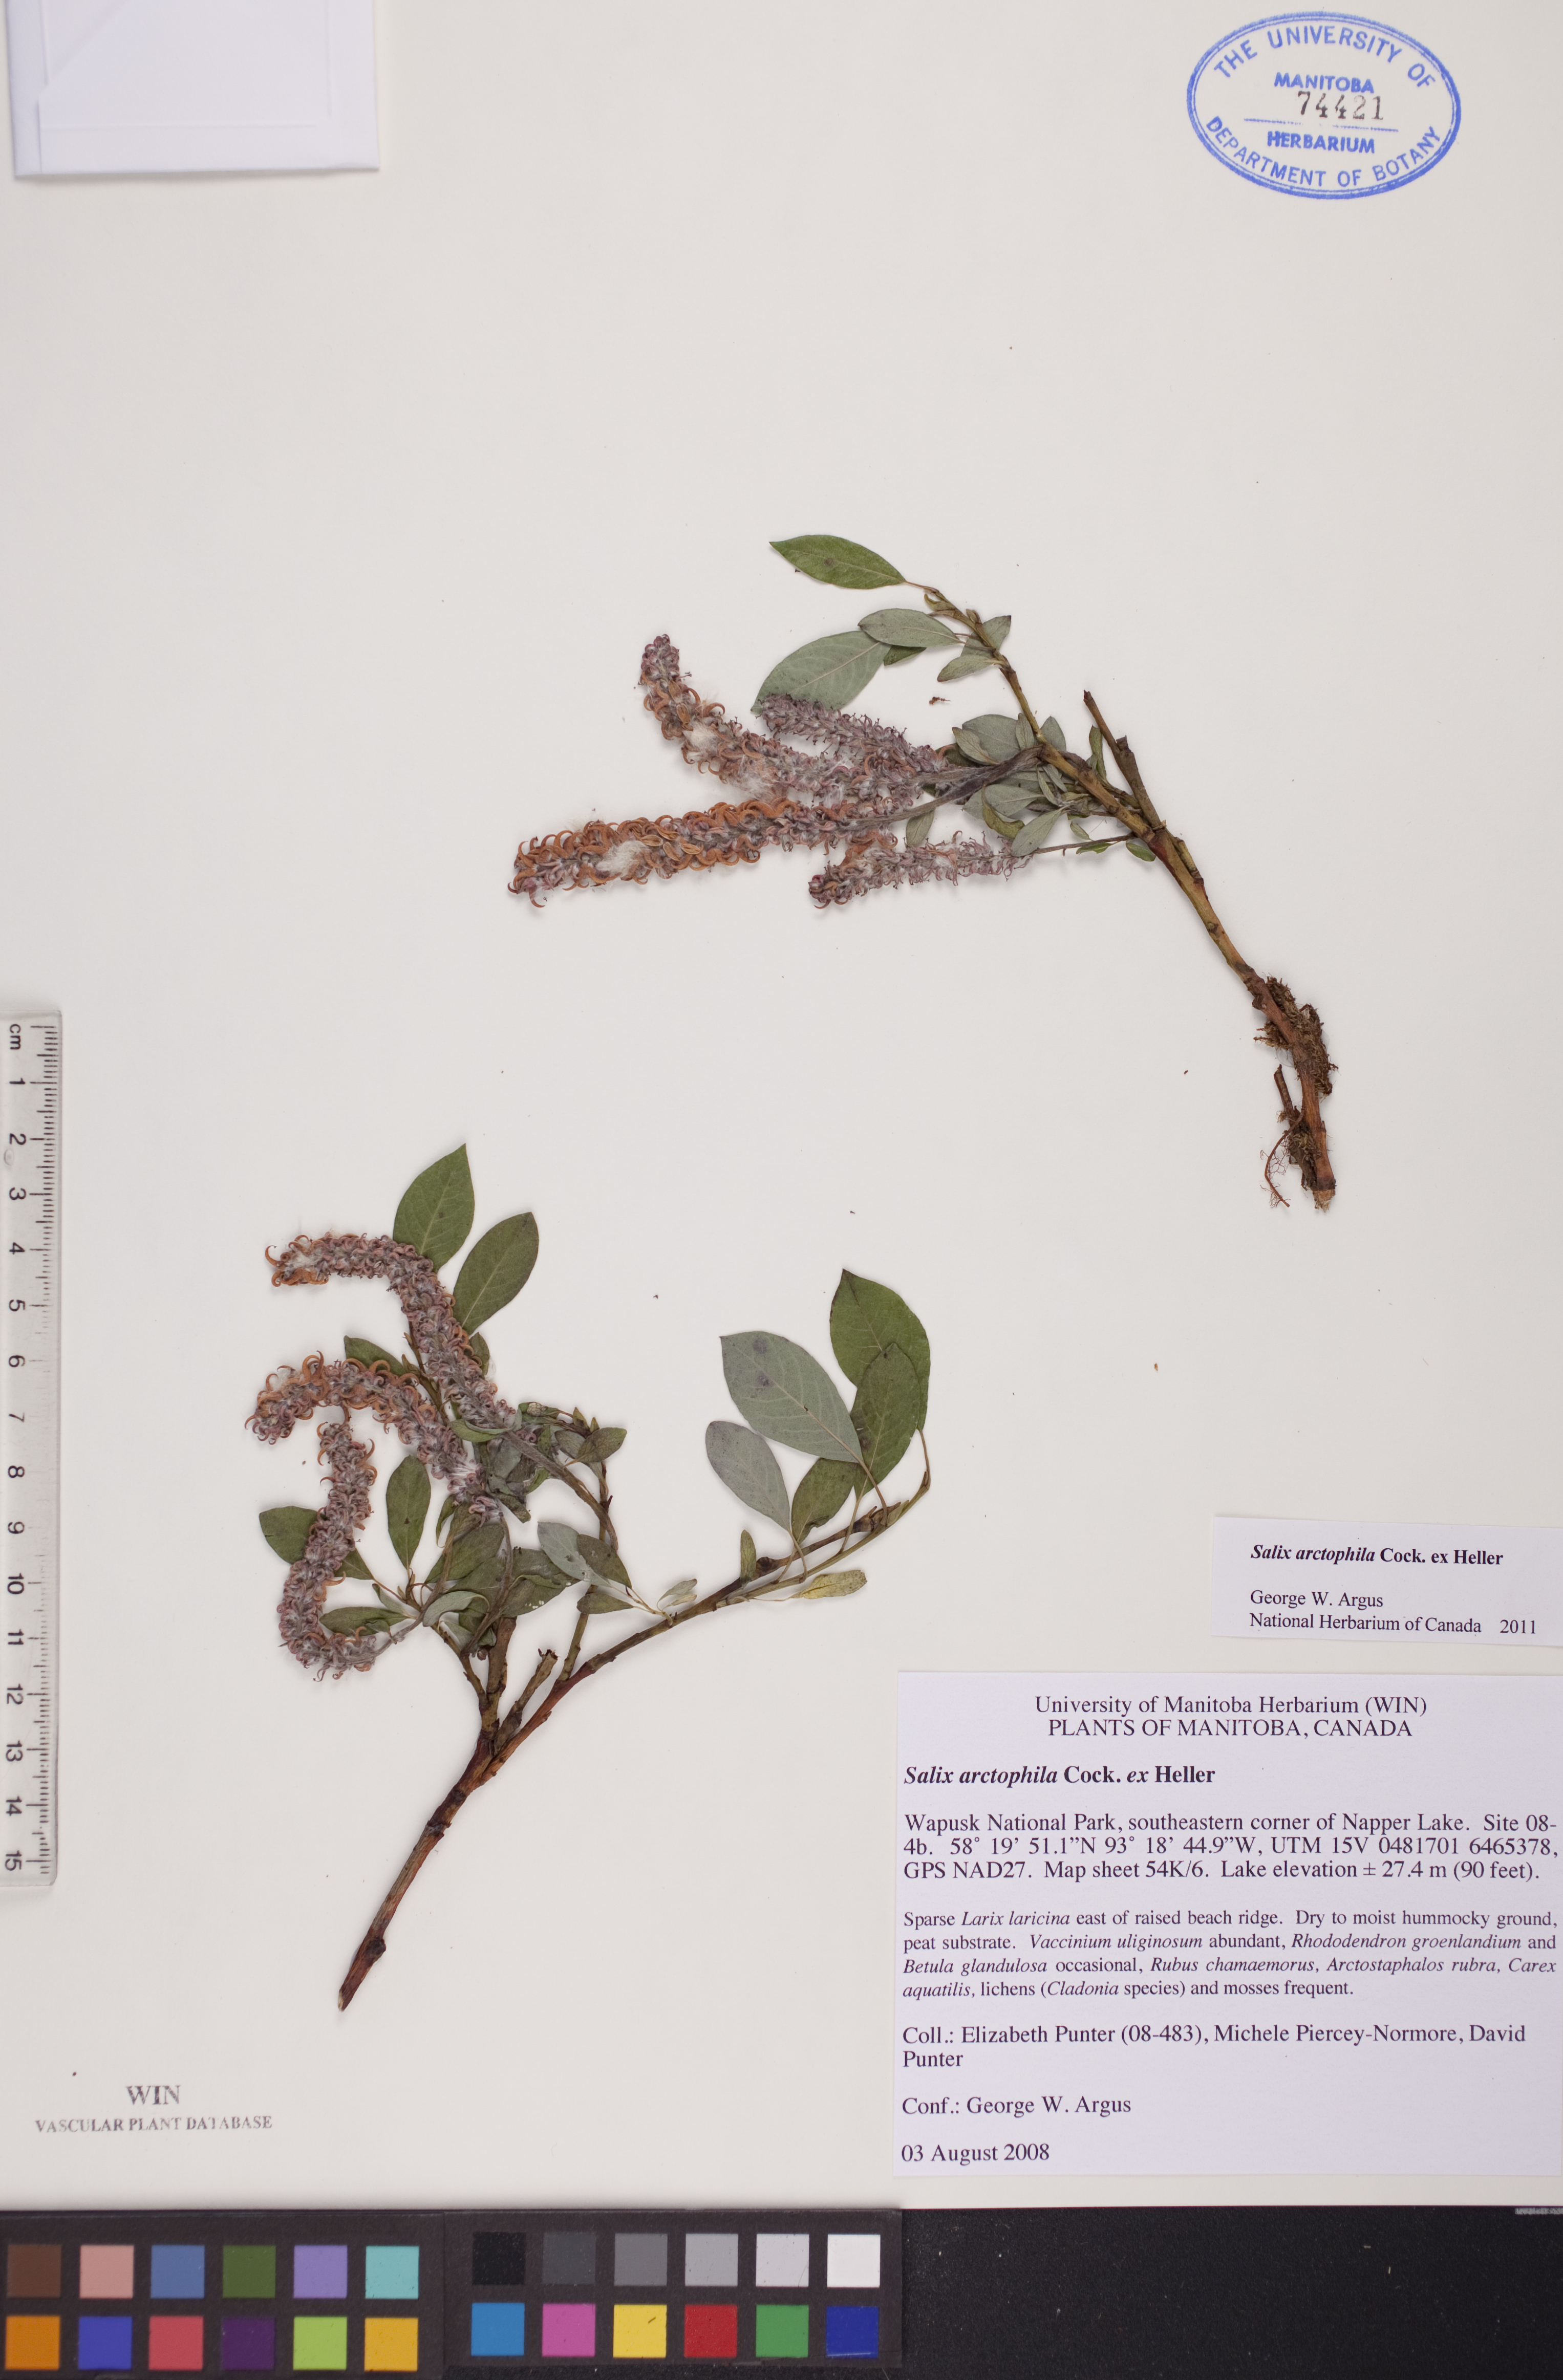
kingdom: Plantae
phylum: Tracheophyta
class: Magnoliopsida
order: Malpighiales
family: Salicaceae
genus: Salix
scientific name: Salix arctophila
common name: Greenland willow
